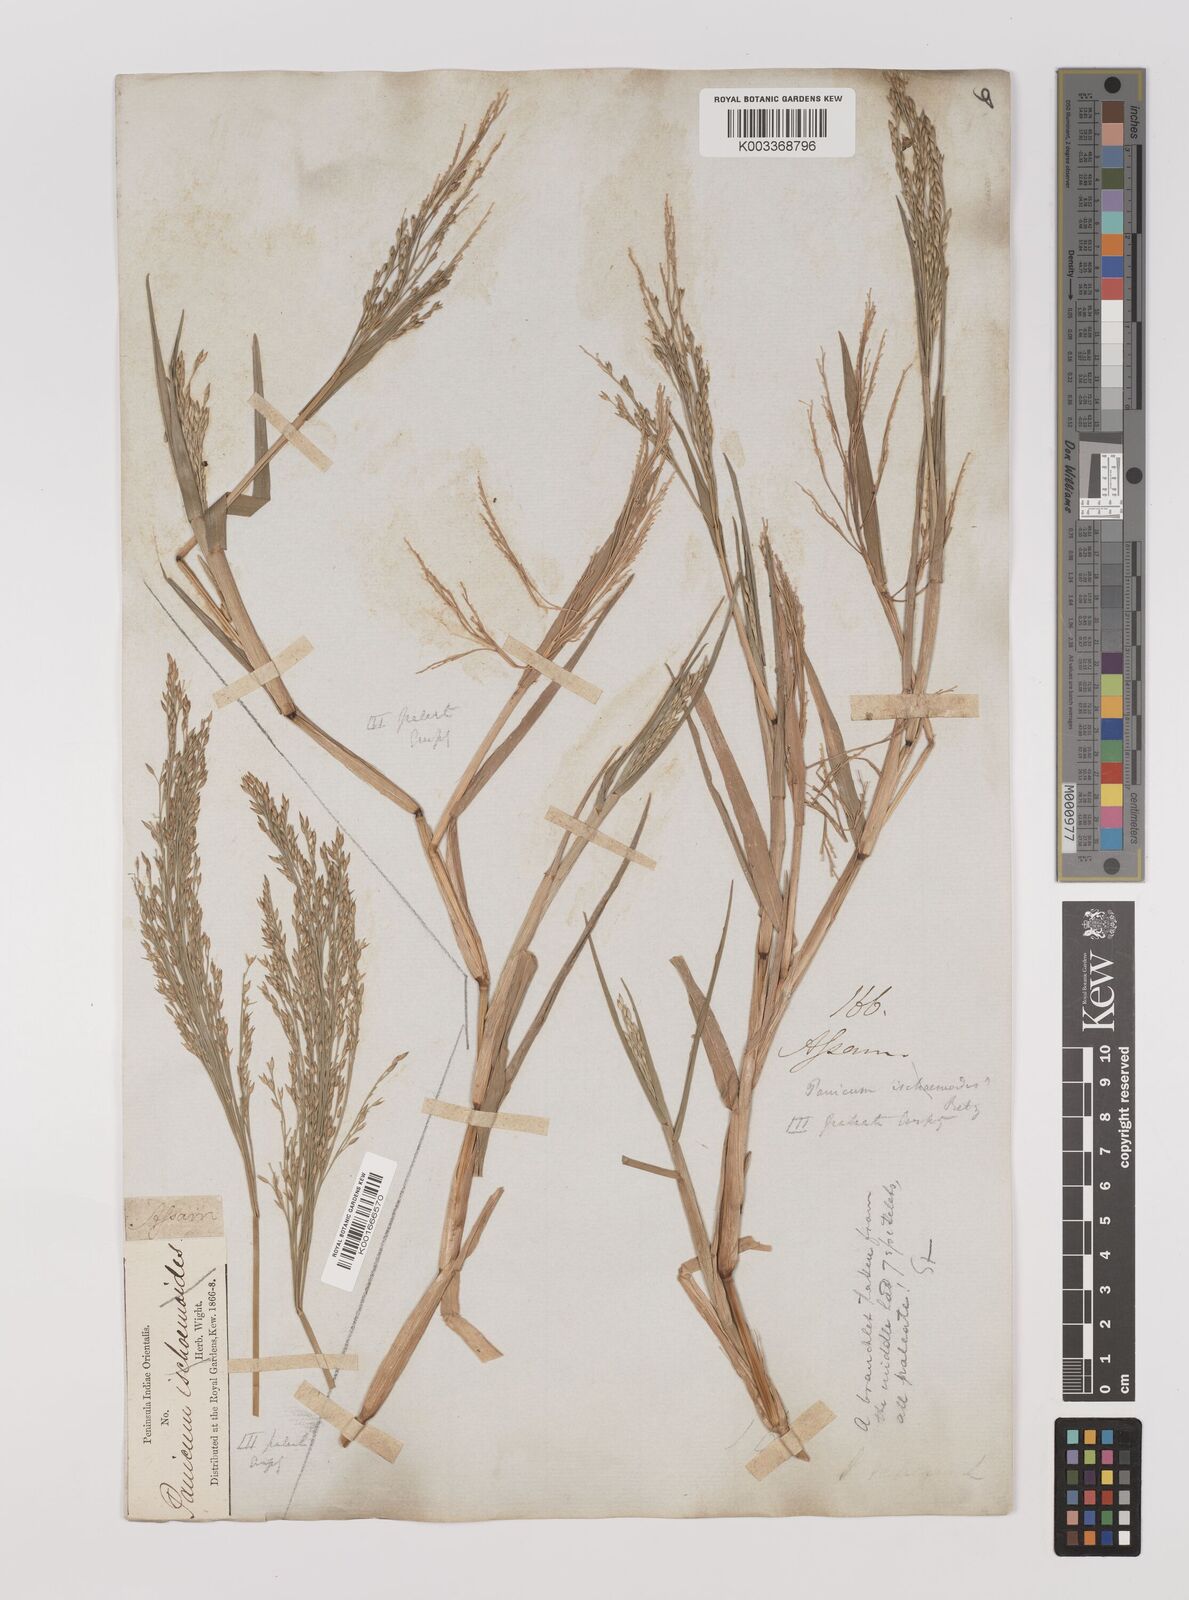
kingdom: Plantae
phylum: Tracheophyta
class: Liliopsida
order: Poales
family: Poaceae
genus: Louisiella
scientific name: Louisiella paludosa
